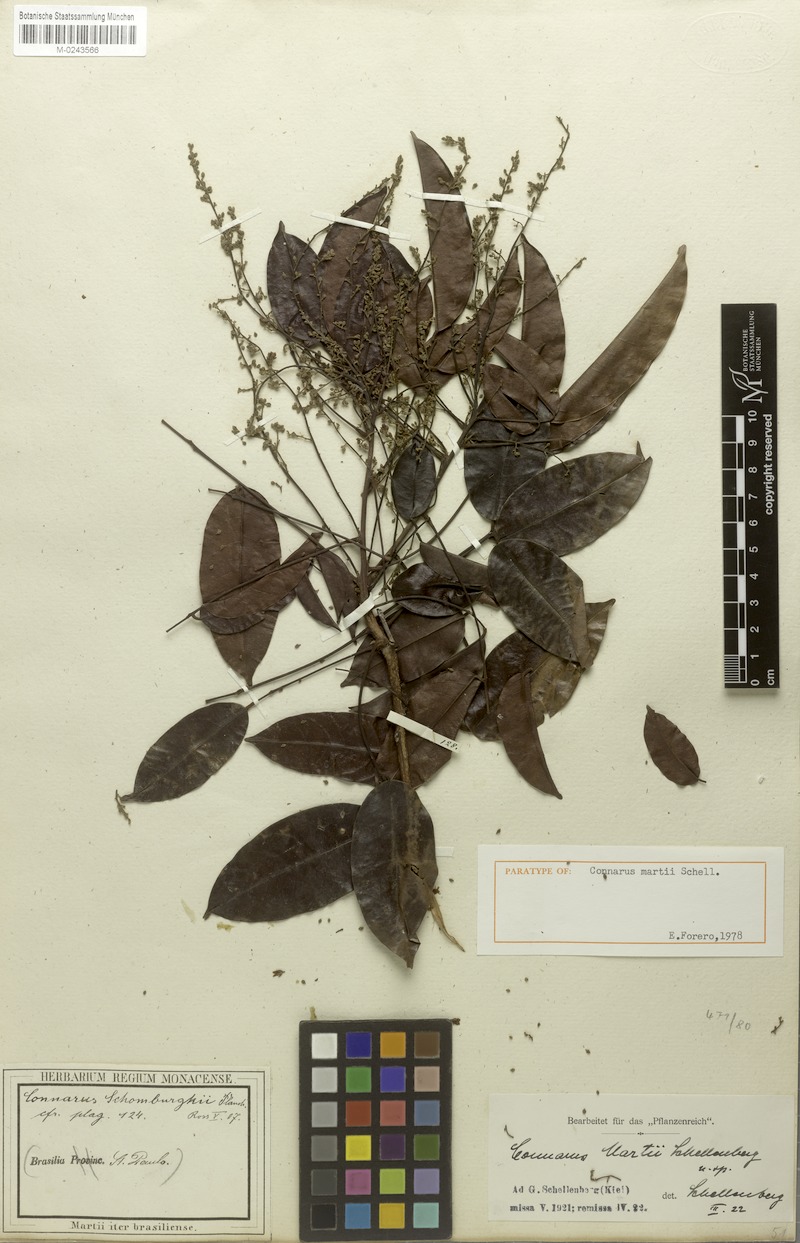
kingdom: Plantae
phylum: Tracheophyta
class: Magnoliopsida
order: Oxalidales
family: Connaraceae
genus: Connarus
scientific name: Connarus martii
